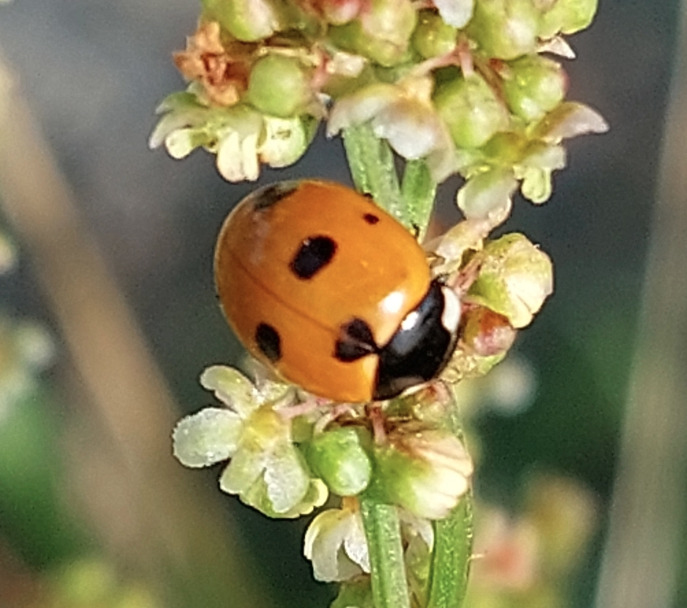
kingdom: Animalia
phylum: Arthropoda
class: Insecta
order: Coleoptera
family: Coccinellidae
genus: Coccinella
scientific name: Coccinella septempunctata
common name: Syvplettet mariehøne
